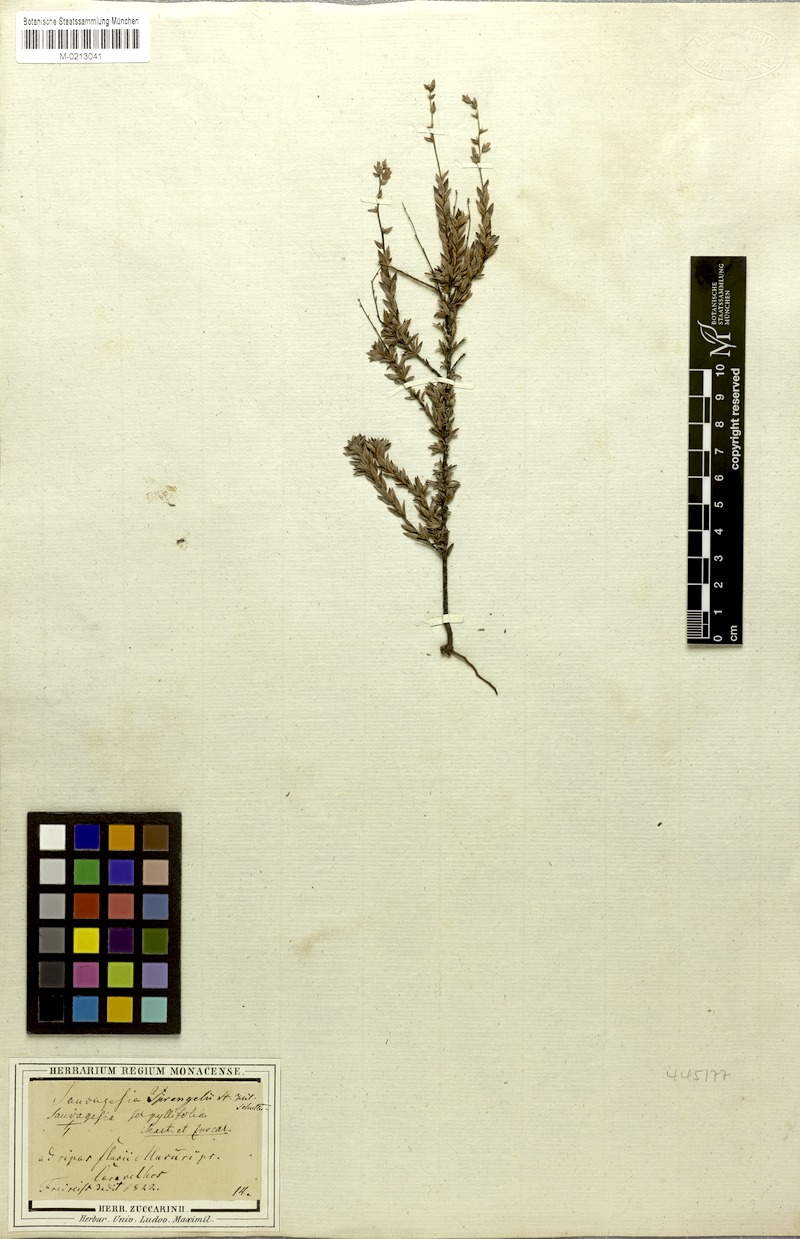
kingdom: Plantae
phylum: Tracheophyta
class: Magnoliopsida
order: Malpighiales
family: Ochnaceae
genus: Sauvagesia
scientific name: Sauvagesia sprengelii
